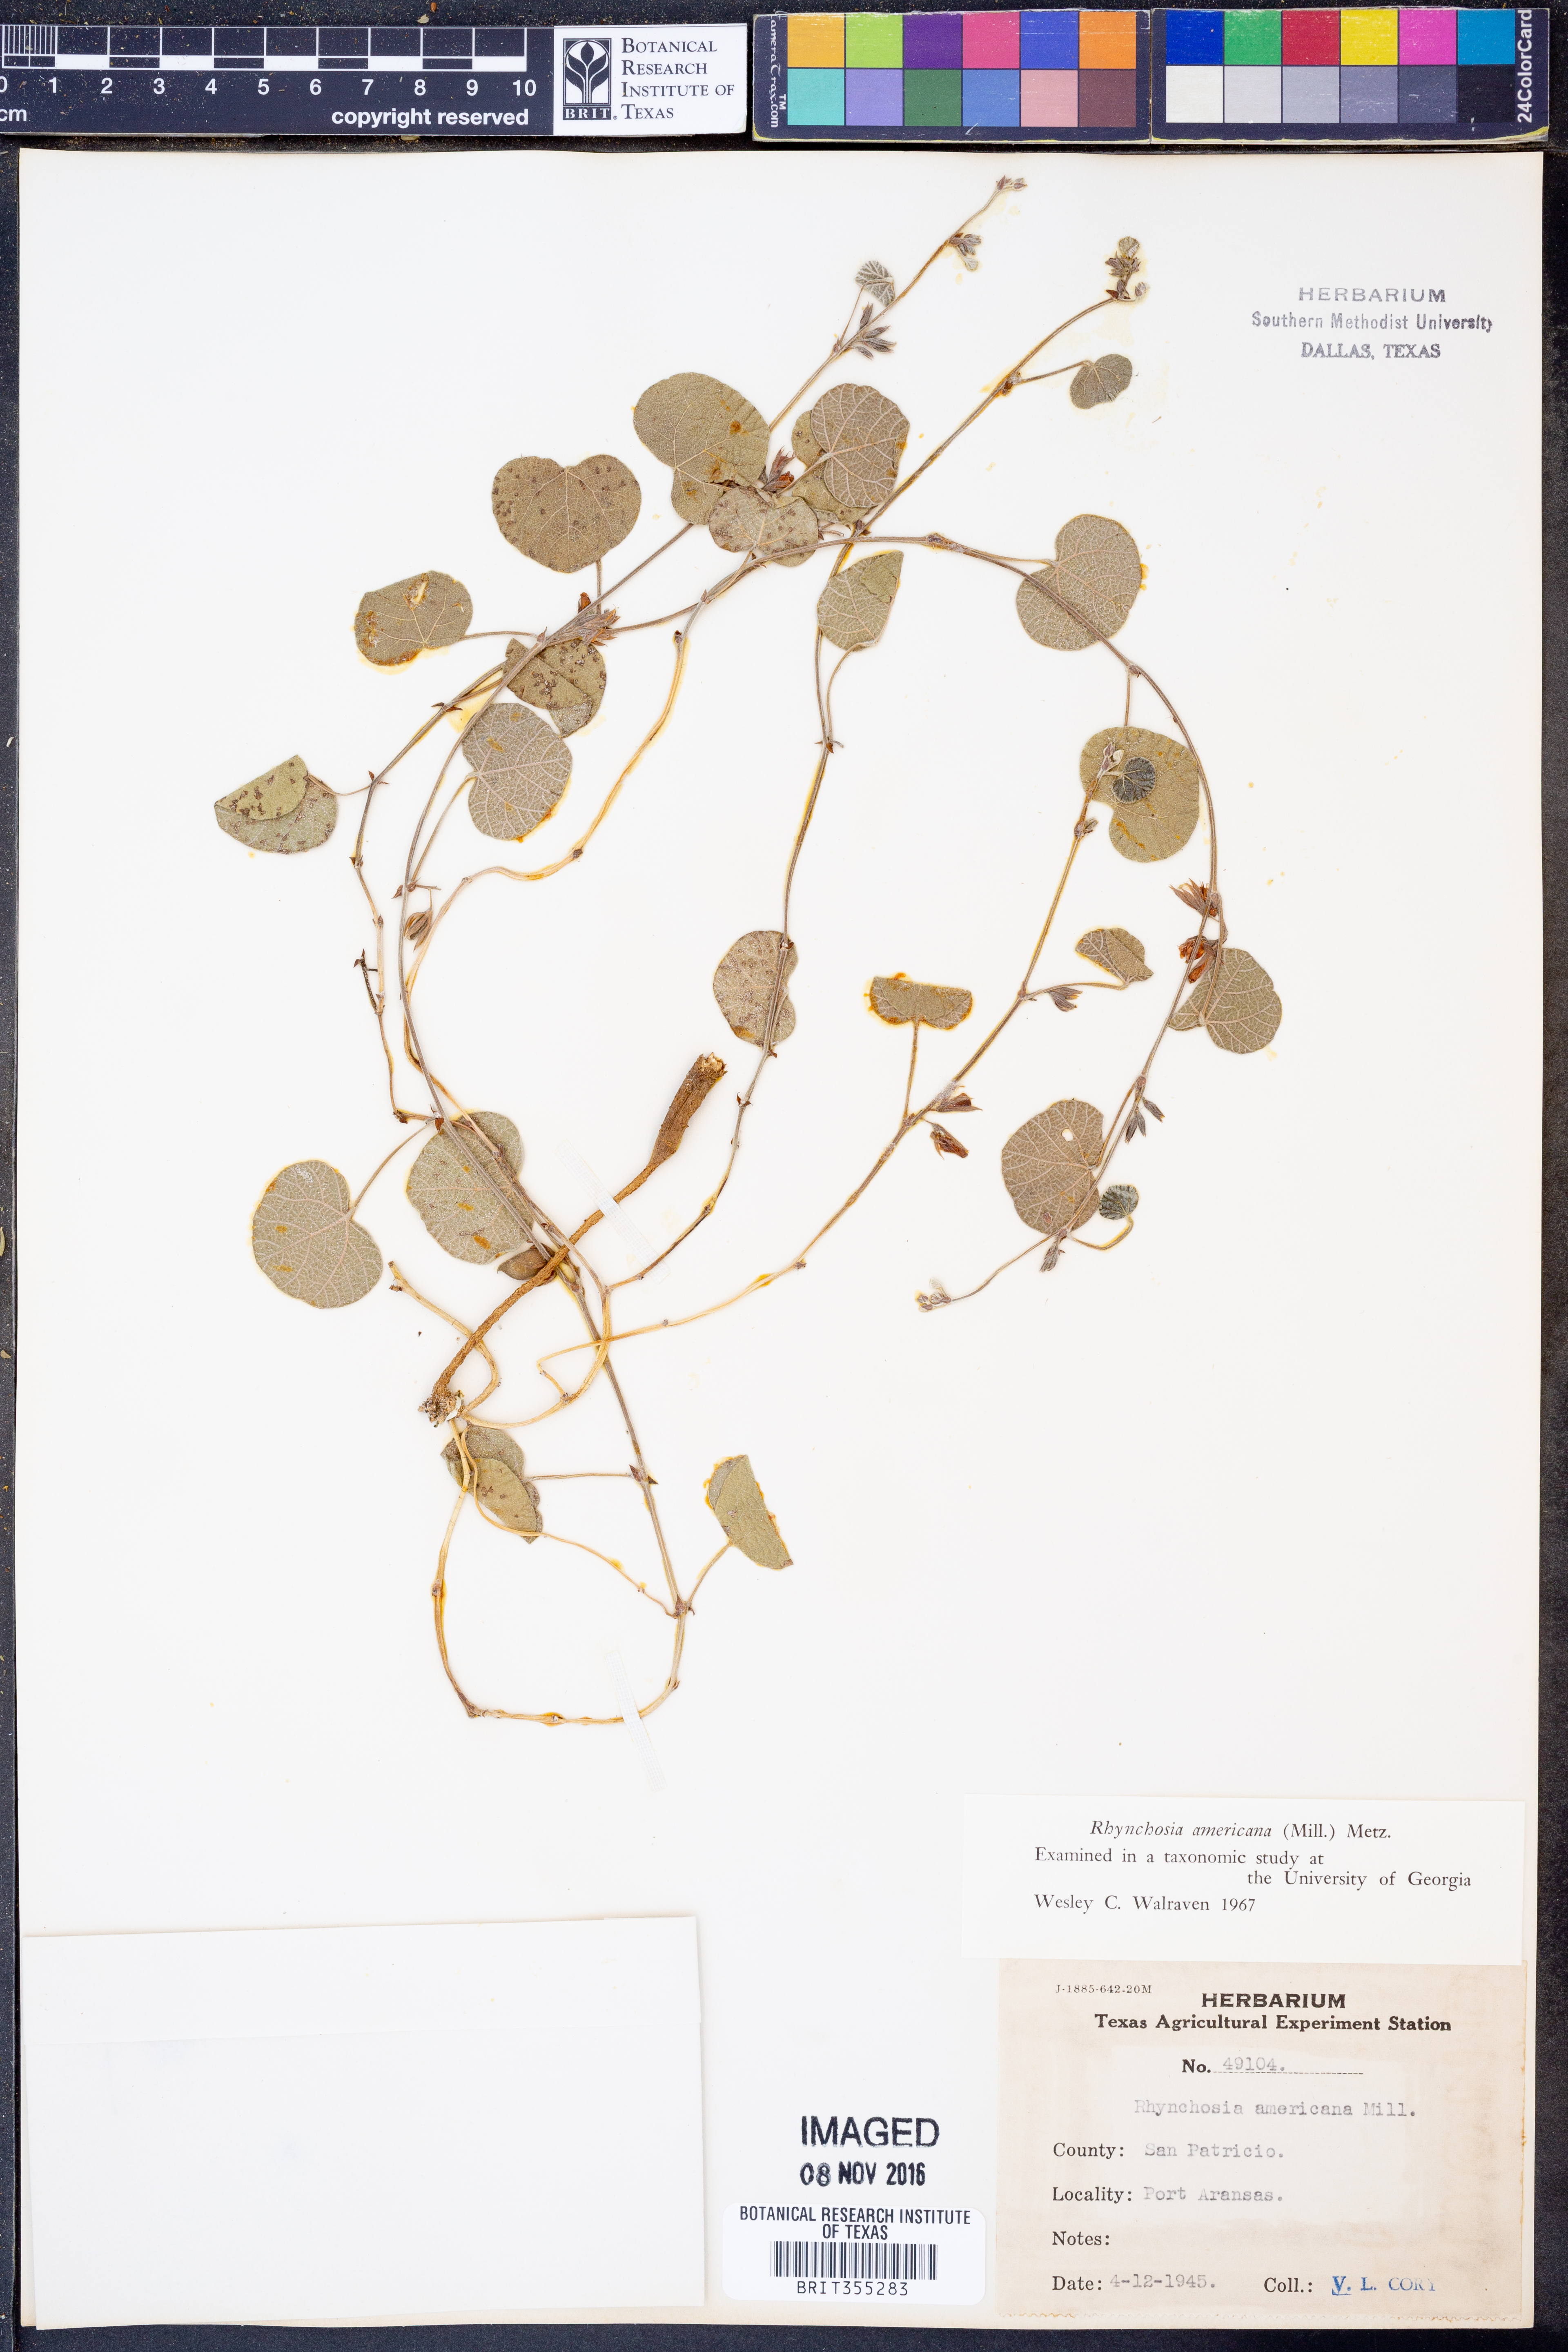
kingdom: Plantae
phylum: Tracheophyta
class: Magnoliopsida
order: Fabales
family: Fabaceae
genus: Rhynchosia
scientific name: Rhynchosia americana
